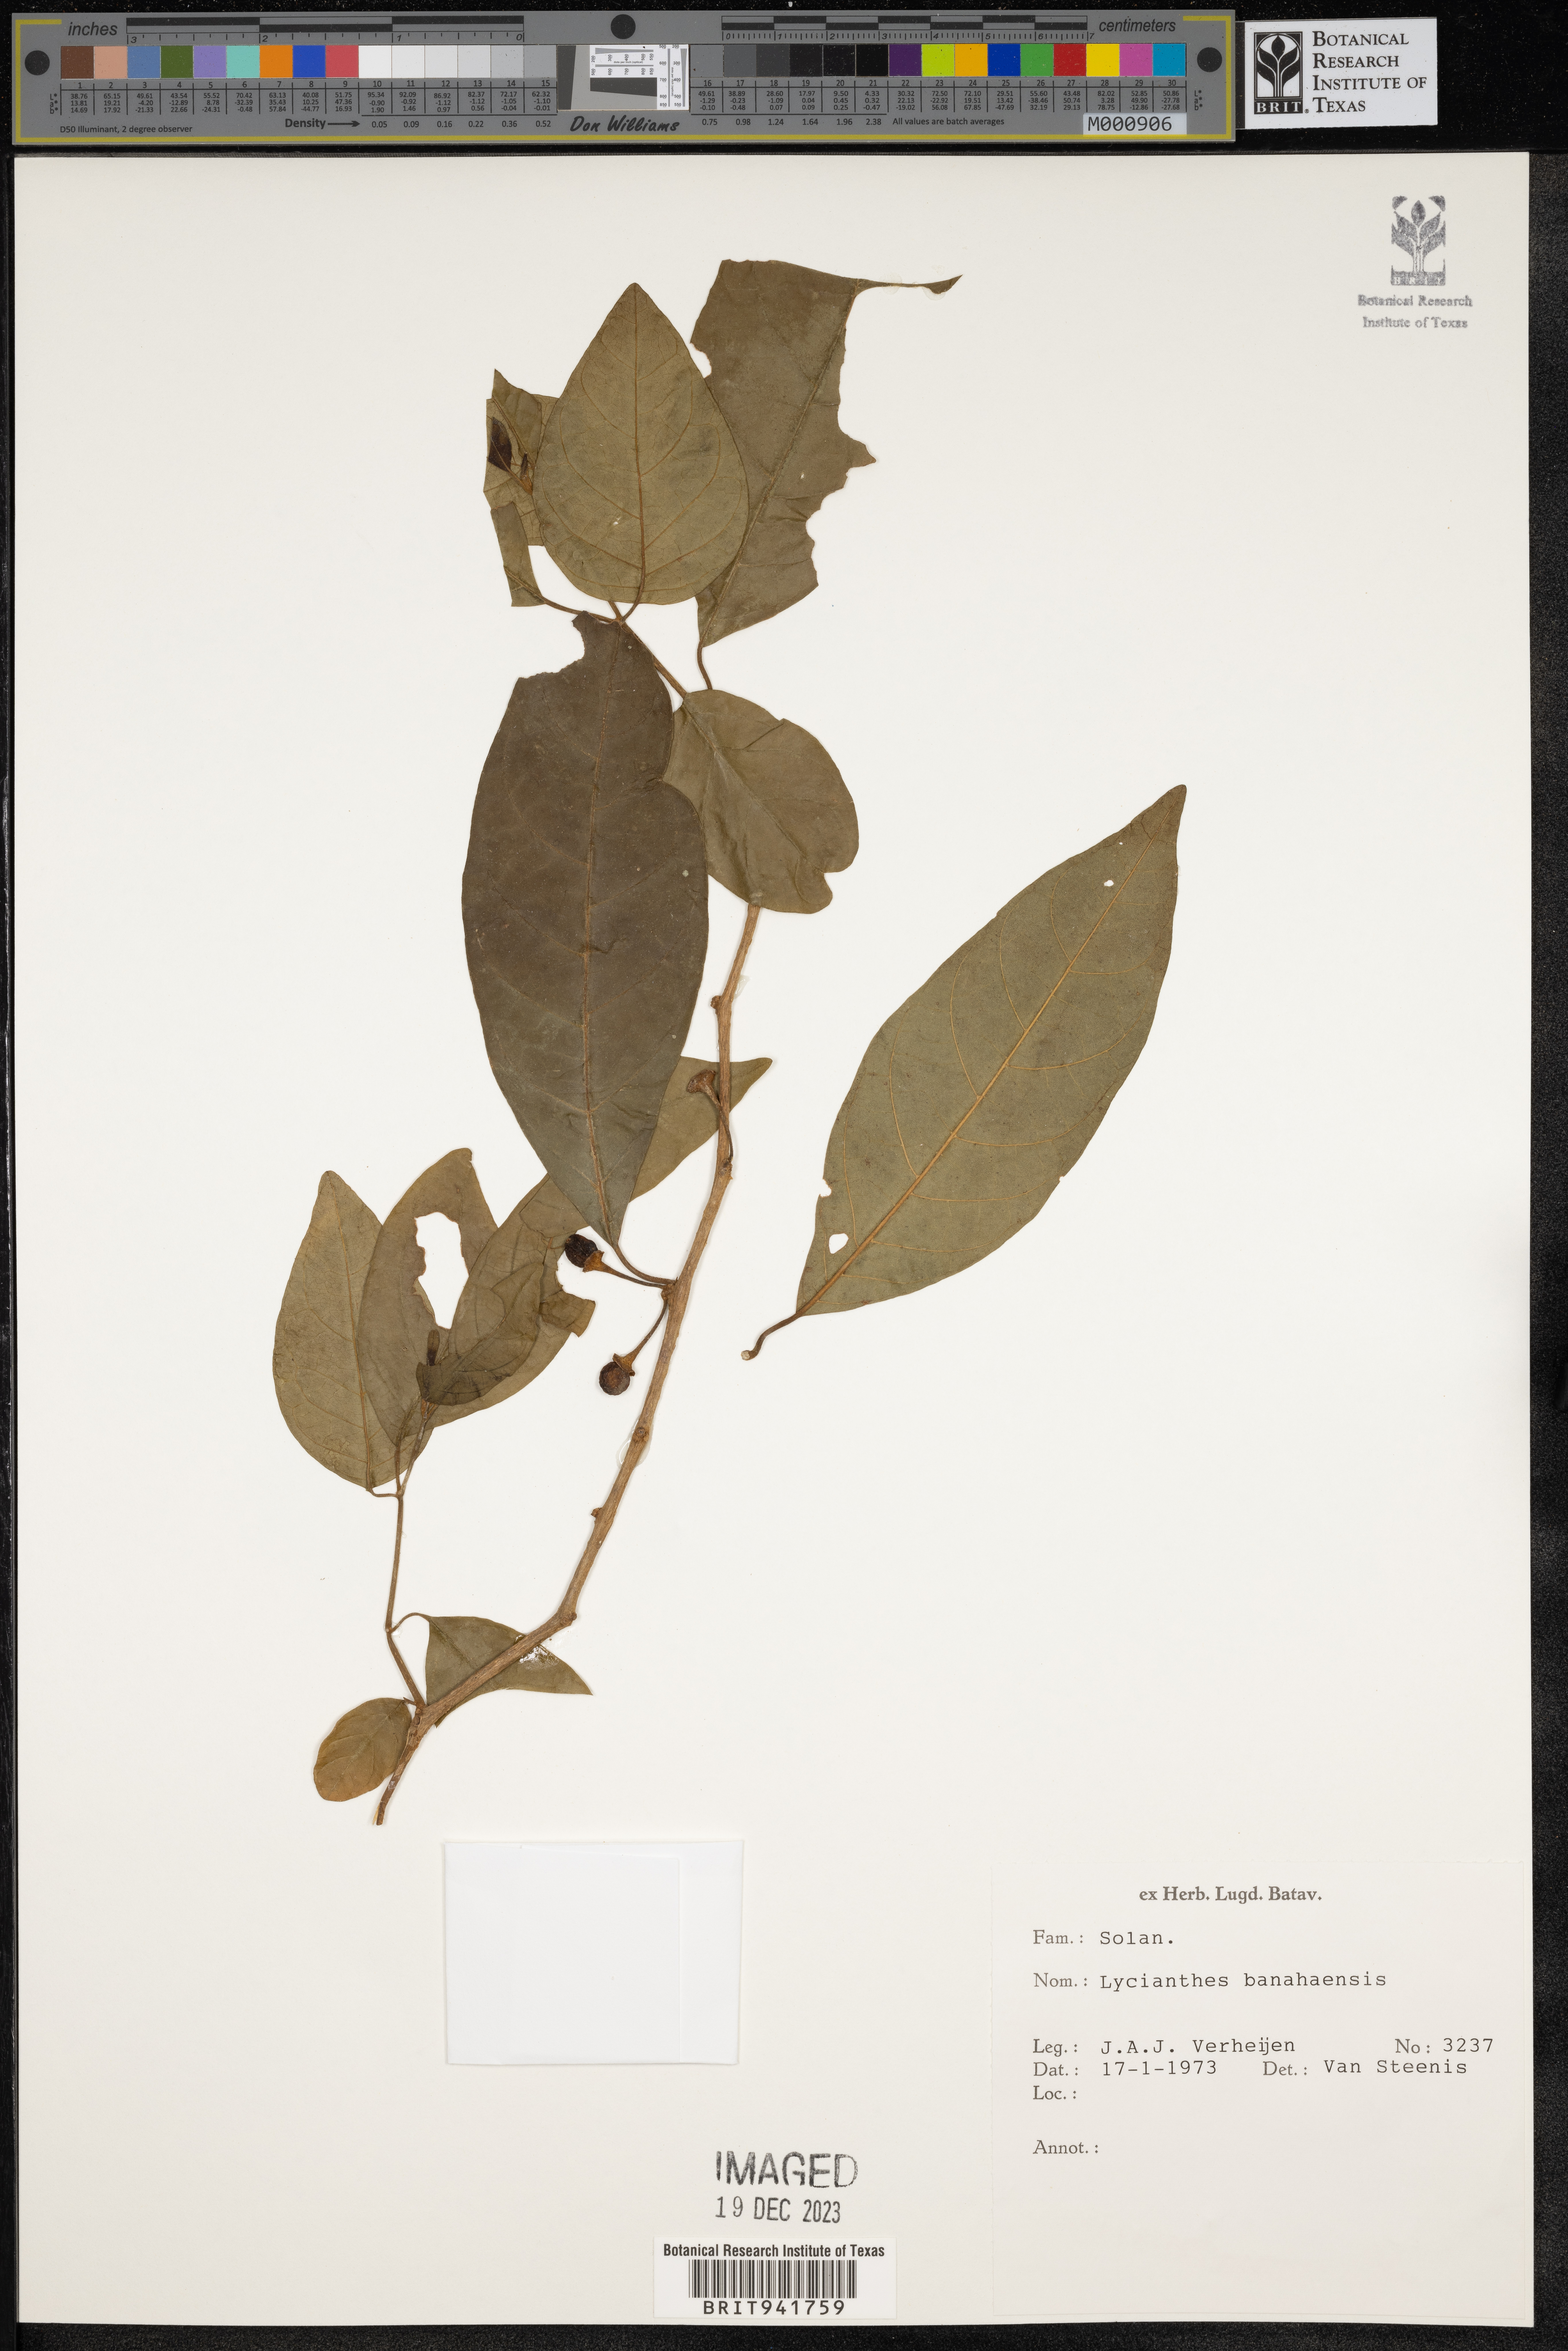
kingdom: Plantae
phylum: Tracheophyta
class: Magnoliopsida
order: Solanales
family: Solanaceae
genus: Lycianthes
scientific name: Lycianthes
